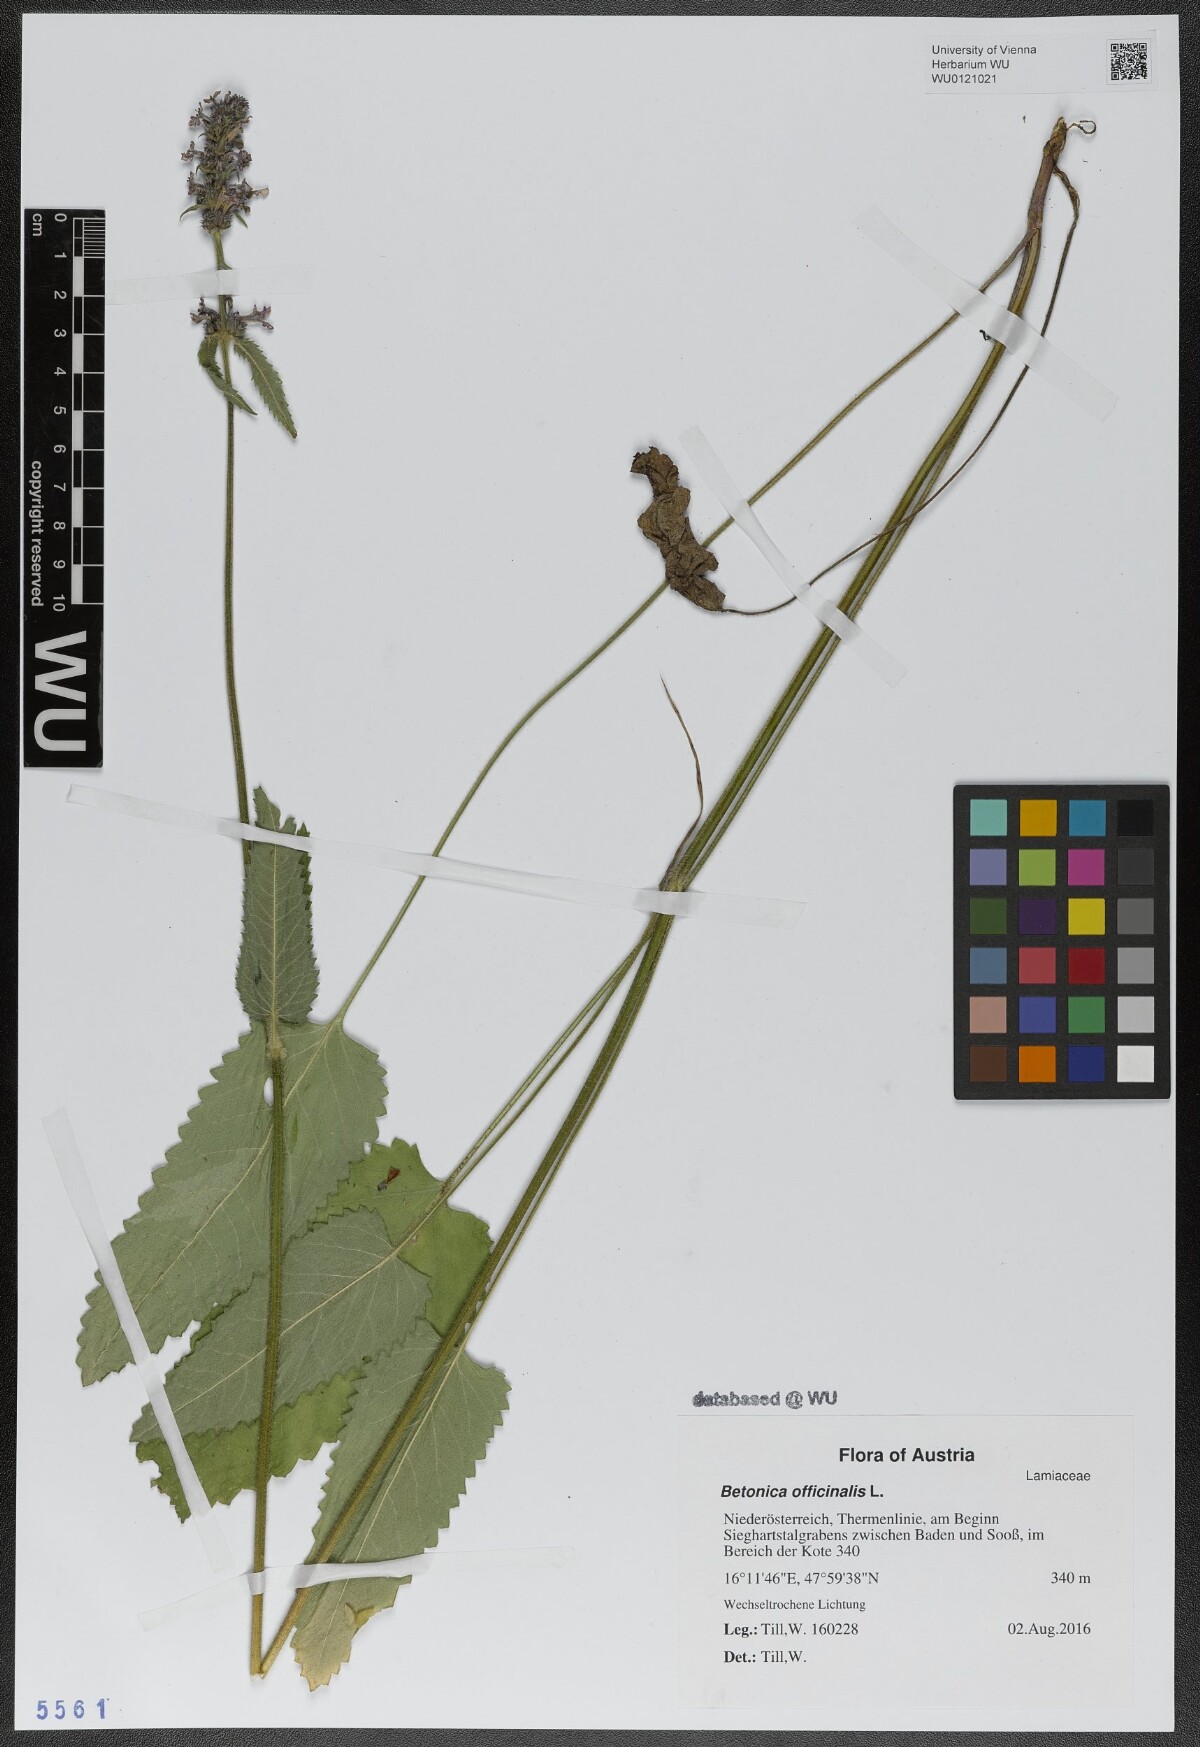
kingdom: Plantae
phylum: Tracheophyta
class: Magnoliopsida
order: Lamiales
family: Lamiaceae
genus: Betonica
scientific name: Betonica officinalis
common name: Bishop's-wort
